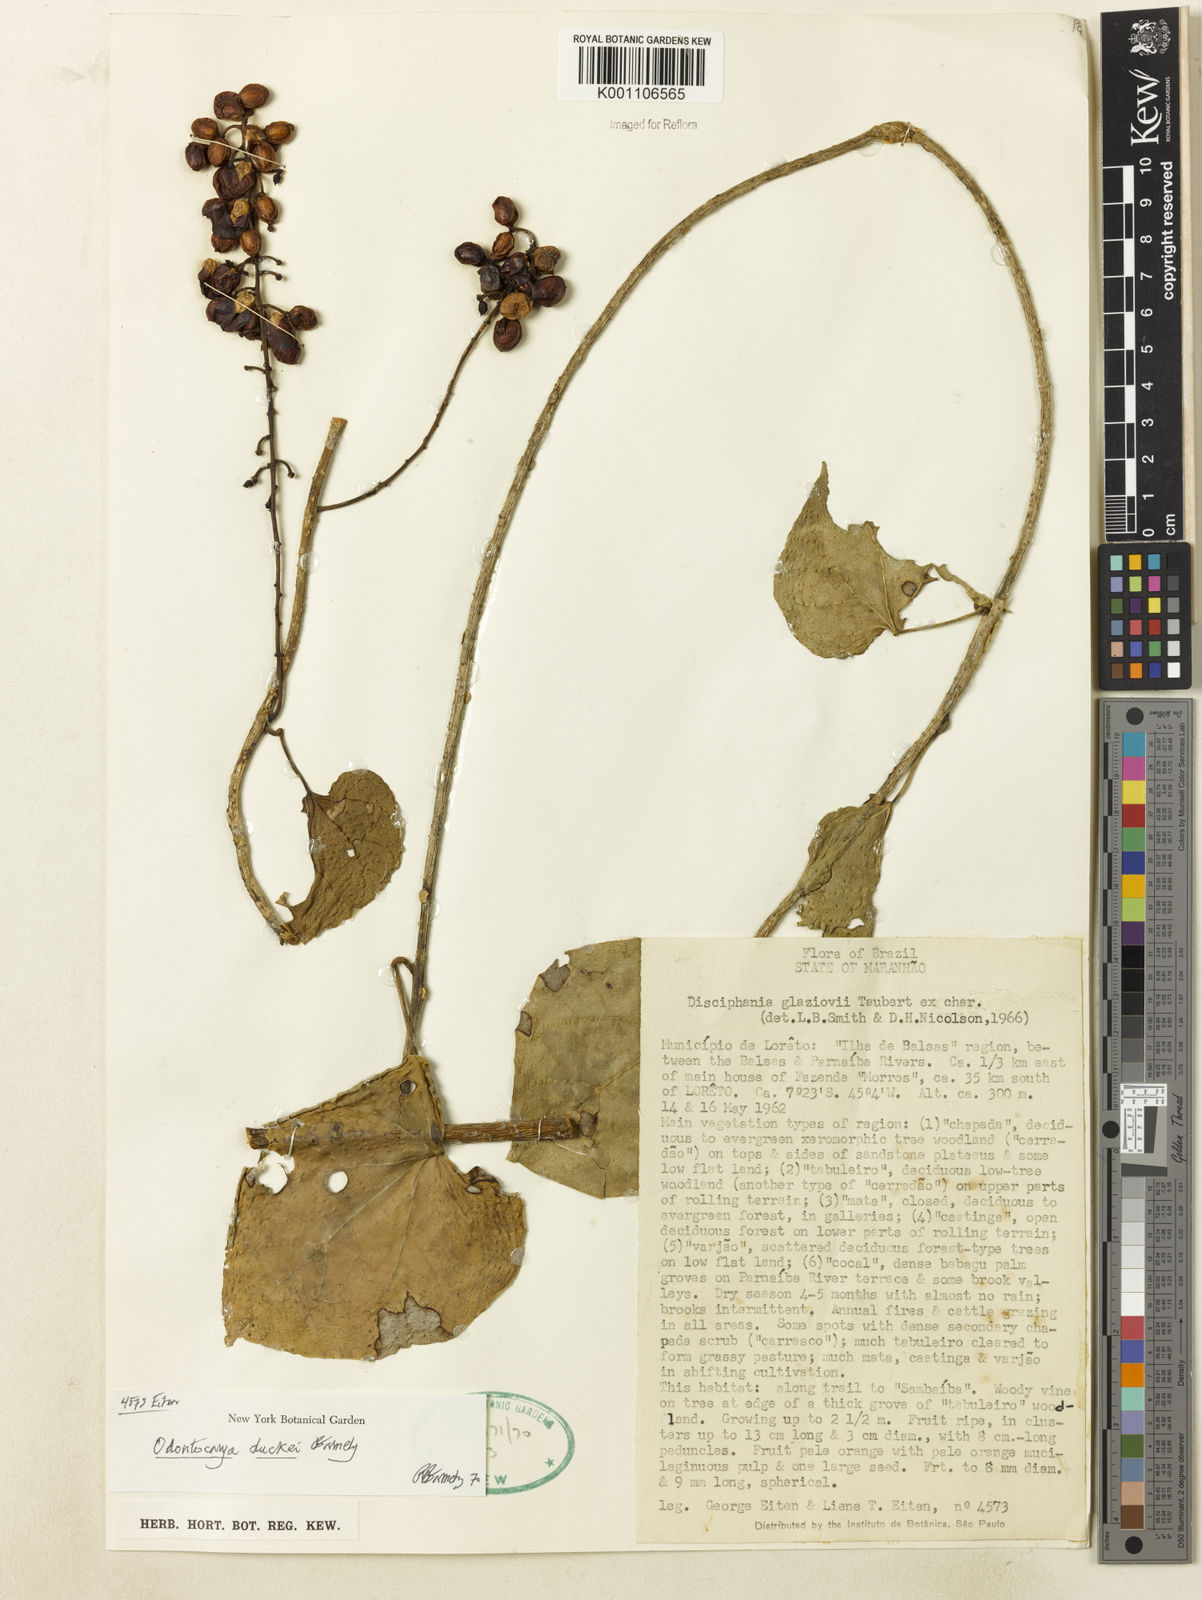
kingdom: Plantae
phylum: Tracheophyta
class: Magnoliopsida
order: Ranunculales
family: Menispermaceae
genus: Odontocarya
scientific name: Odontocarya duckei
